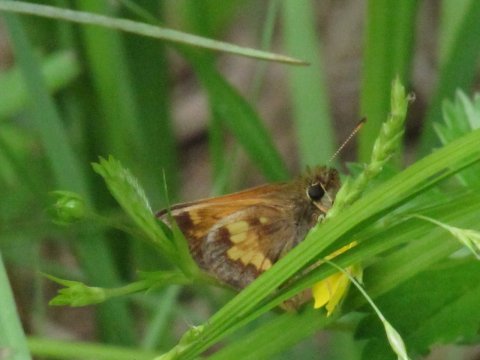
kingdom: Animalia
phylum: Arthropoda
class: Insecta
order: Lepidoptera
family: Hesperiidae
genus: Lon
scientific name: Lon hobomok
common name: Hobomok Skipper
